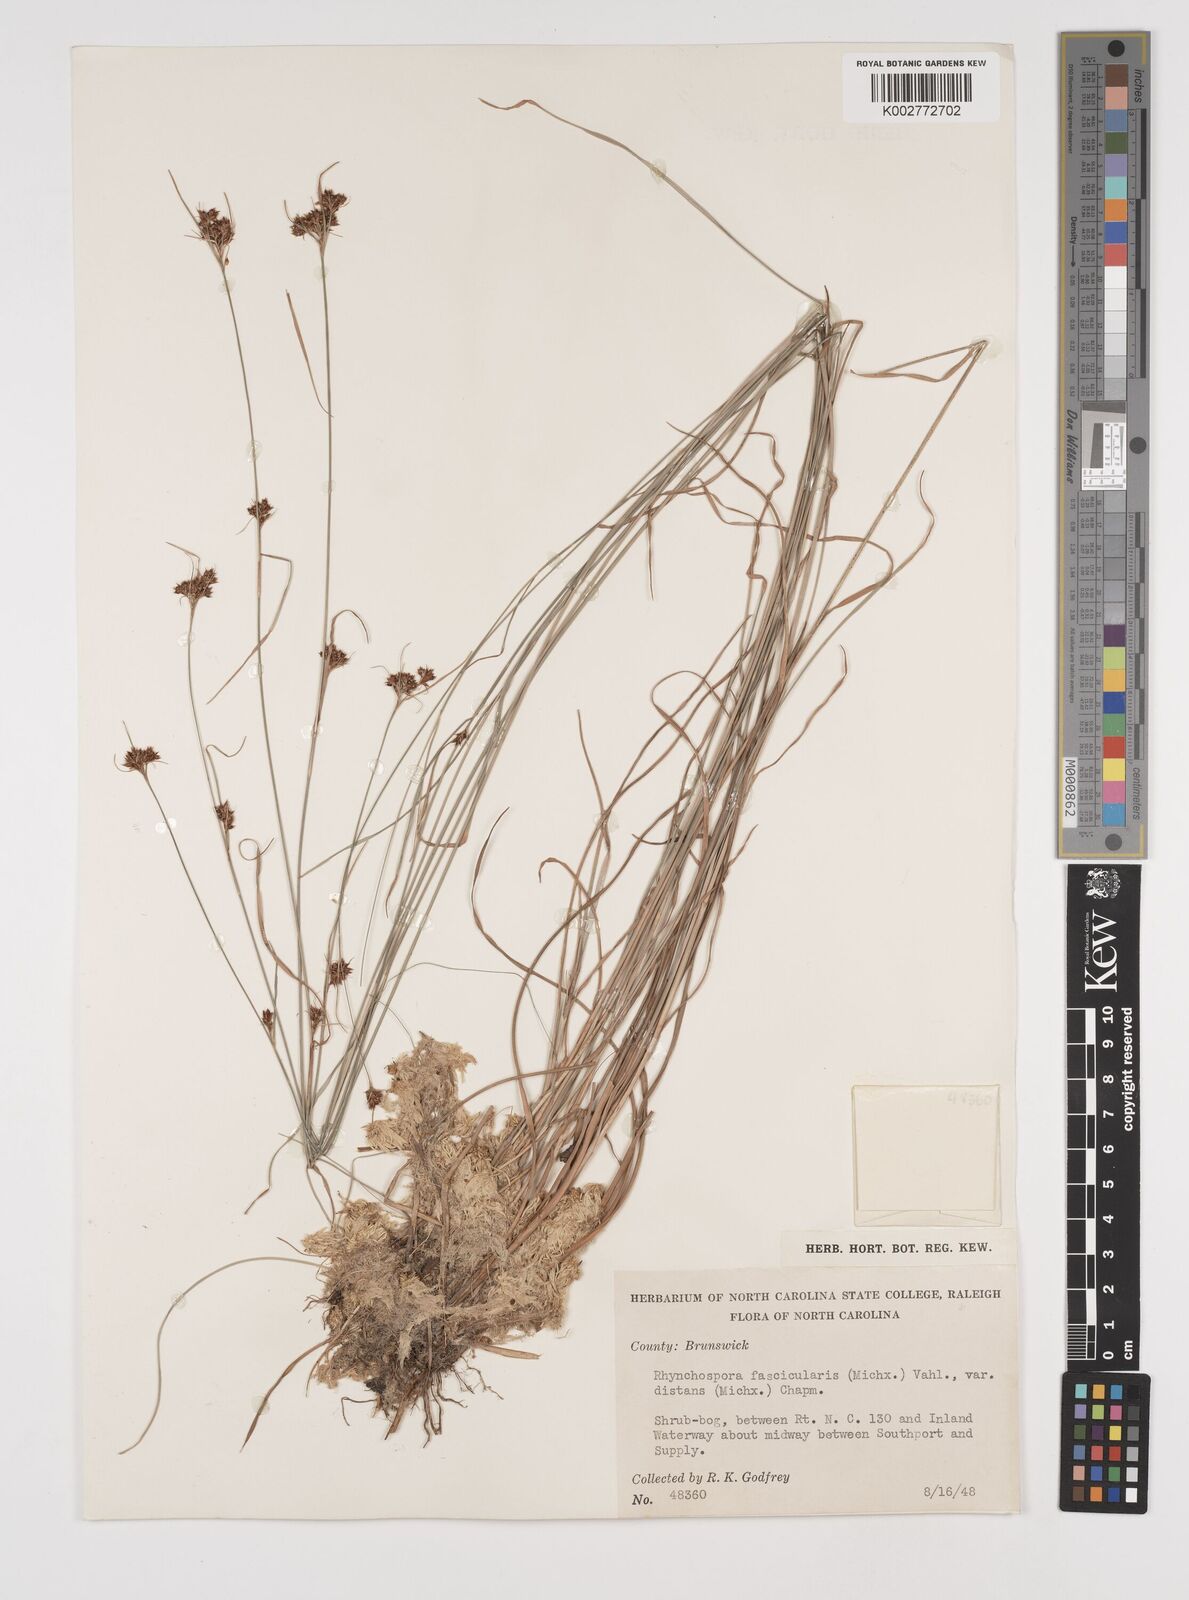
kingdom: Plantae
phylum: Tracheophyta
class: Liliopsida
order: Poales
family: Cyperaceae
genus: Rhynchospora
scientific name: Rhynchospora fascicularis
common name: Fascicled beak sedge
